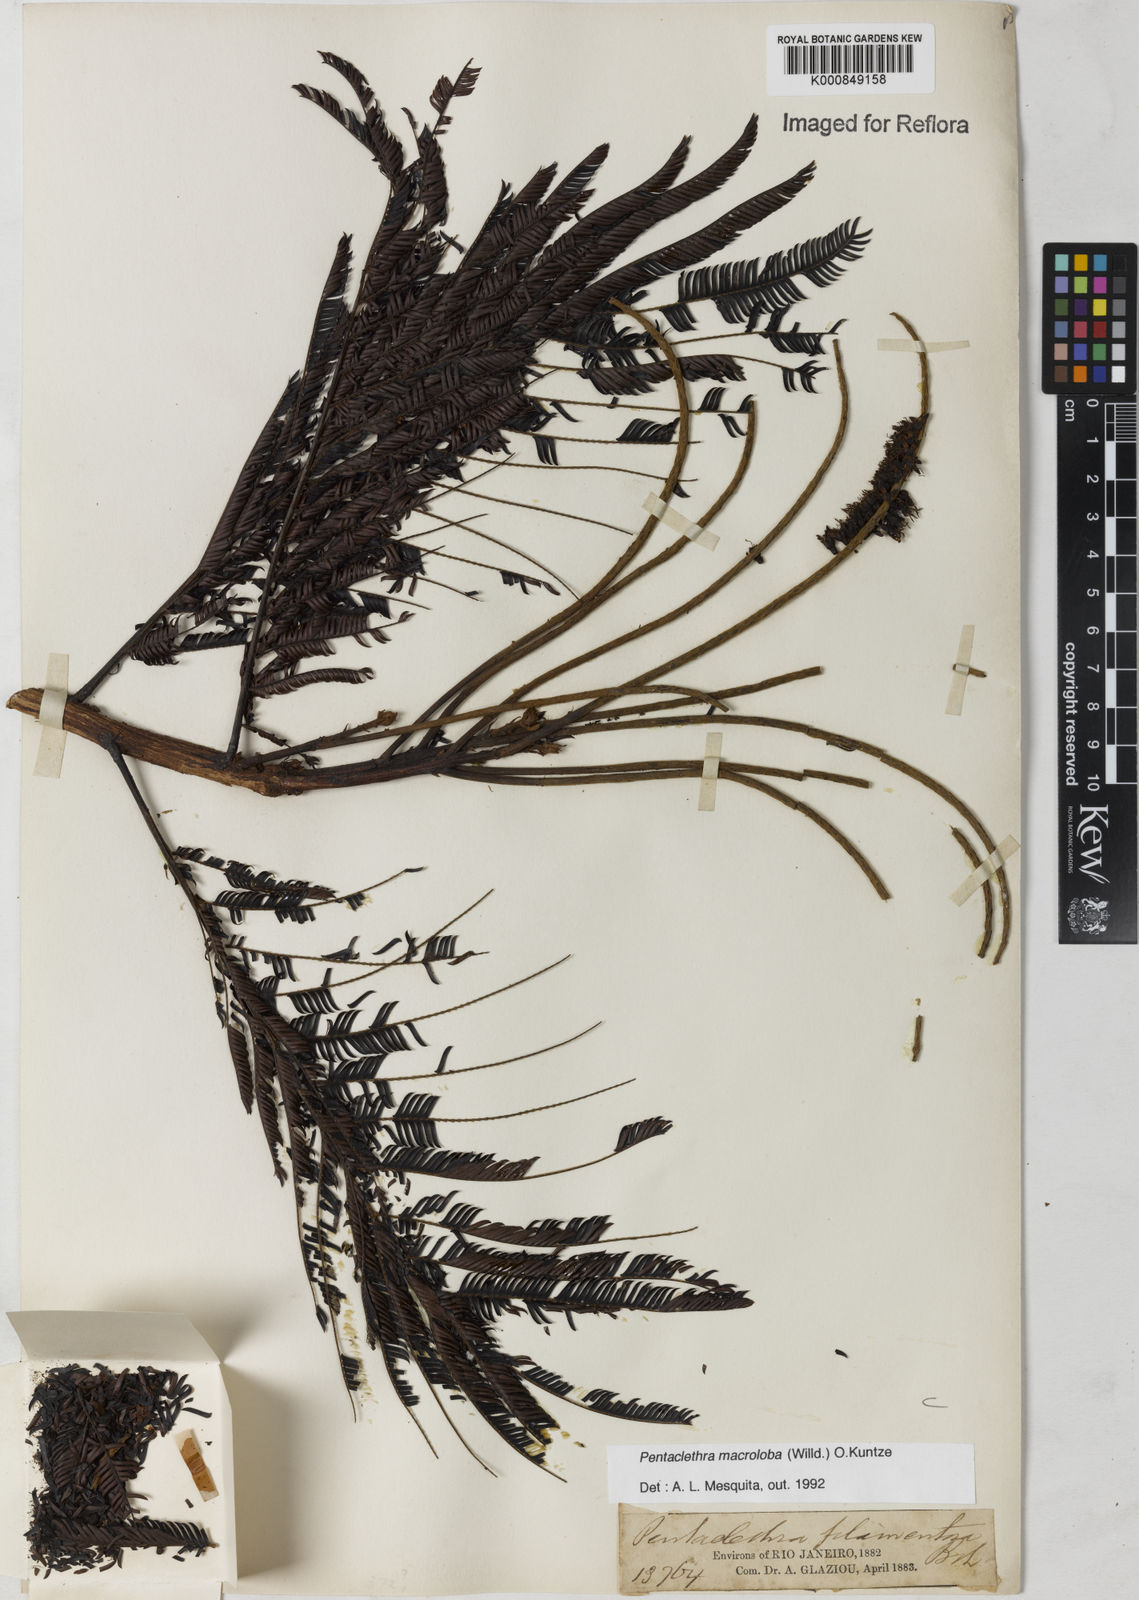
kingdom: Plantae
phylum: Tracheophyta
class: Magnoliopsida
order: Fabales
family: Fabaceae
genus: Pentaclethra
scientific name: Pentaclethra macroloba
